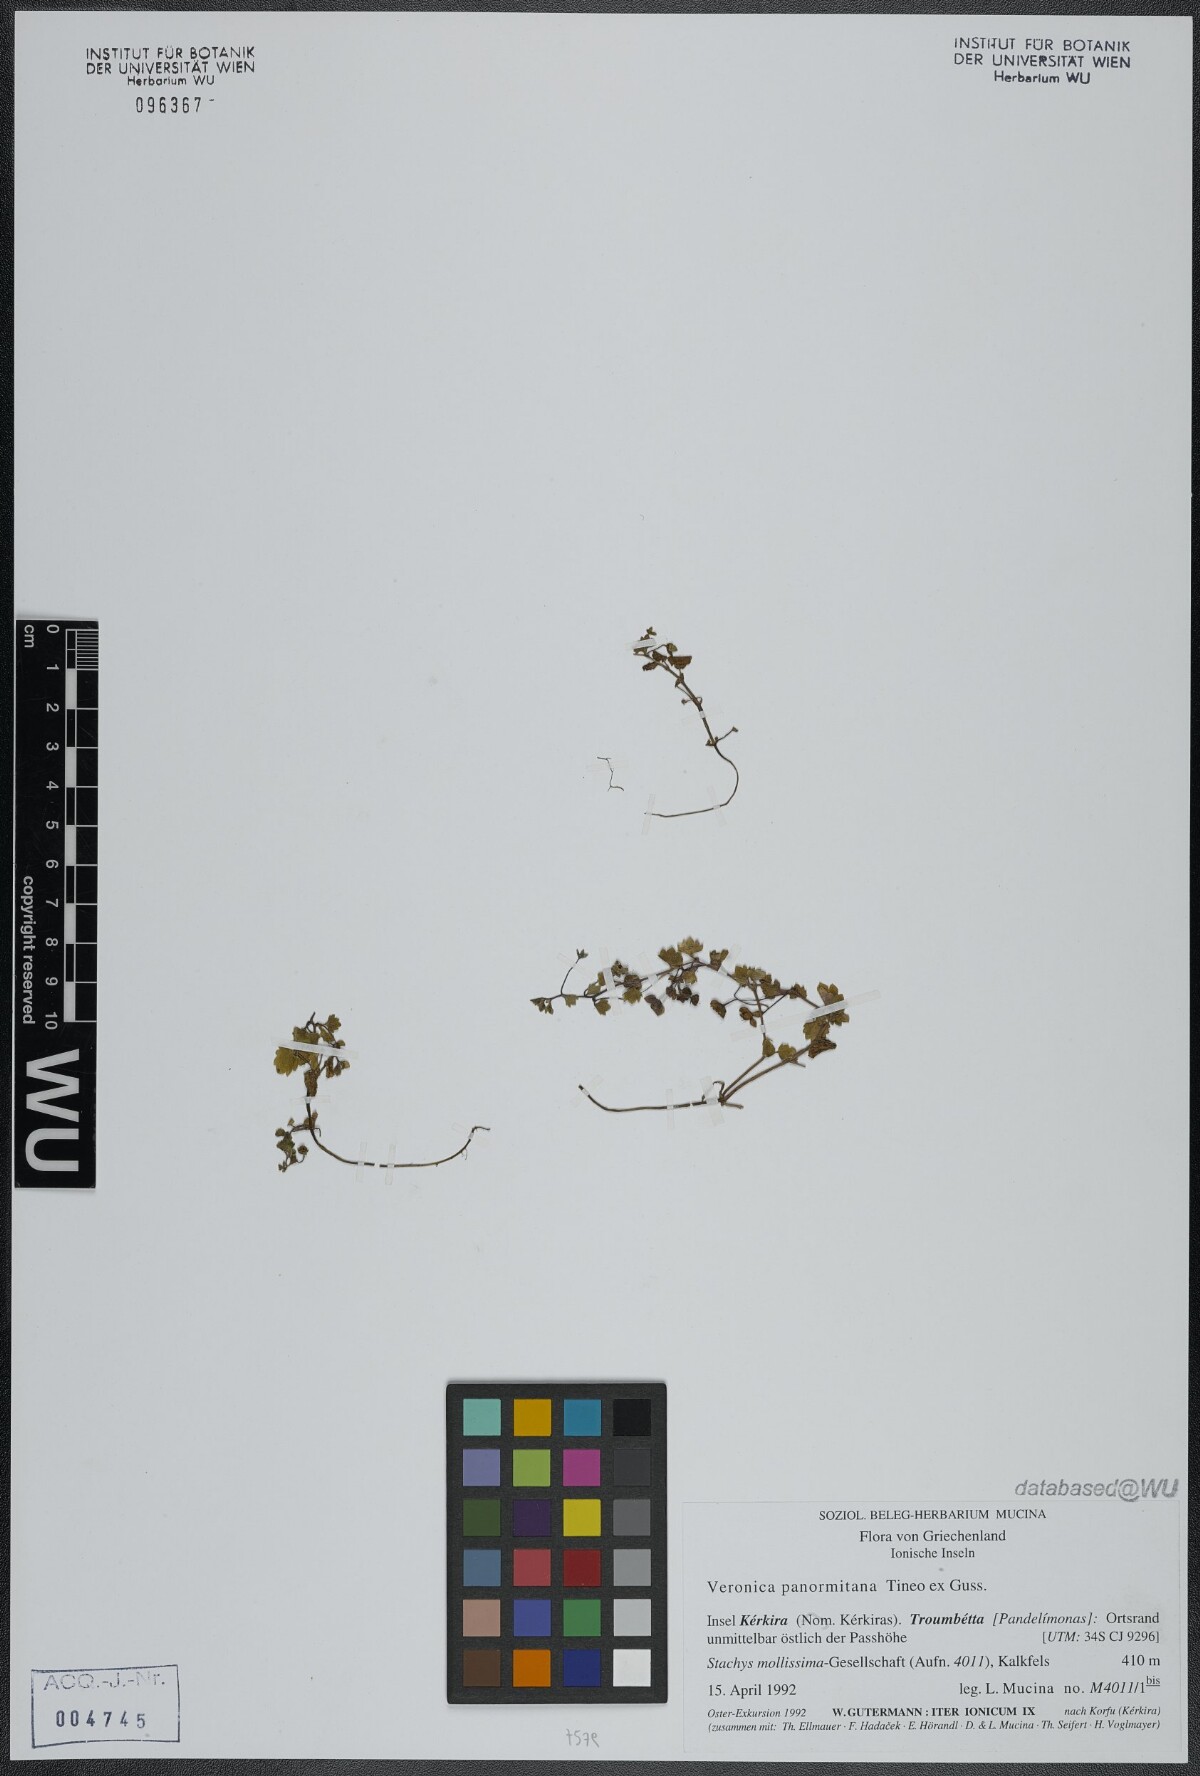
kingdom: Plantae
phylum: Tracheophyta
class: Magnoliopsida
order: Lamiales
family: Plantaginaceae
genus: Veronica
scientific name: Veronica panormitana
